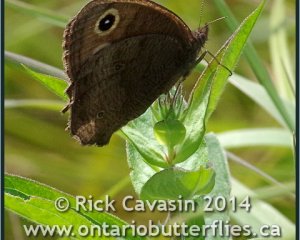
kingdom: Animalia
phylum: Arthropoda
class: Insecta
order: Lepidoptera
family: Nymphalidae
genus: Cercyonis
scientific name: Cercyonis pegala
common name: Common Wood-Nymph
